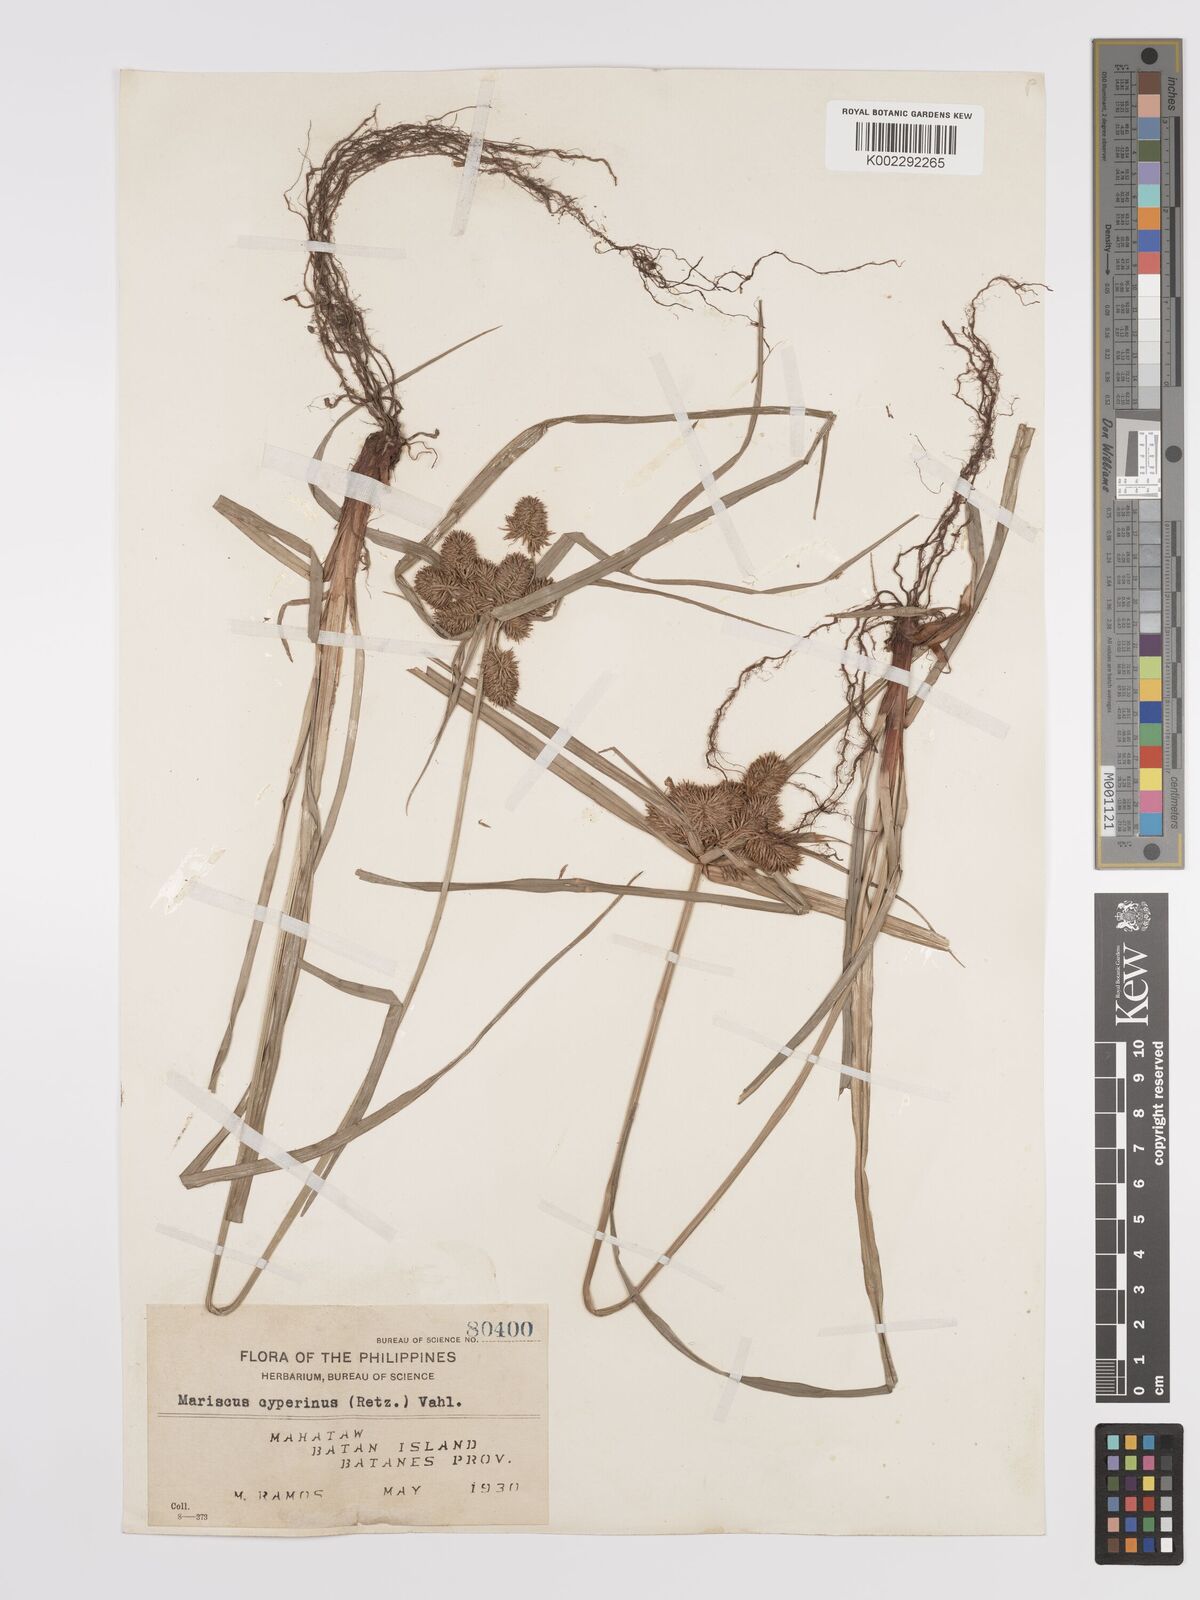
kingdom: Plantae
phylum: Tracheophyta
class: Liliopsida
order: Poales
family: Cyperaceae
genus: Cyperus
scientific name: Cyperus cyperinus
